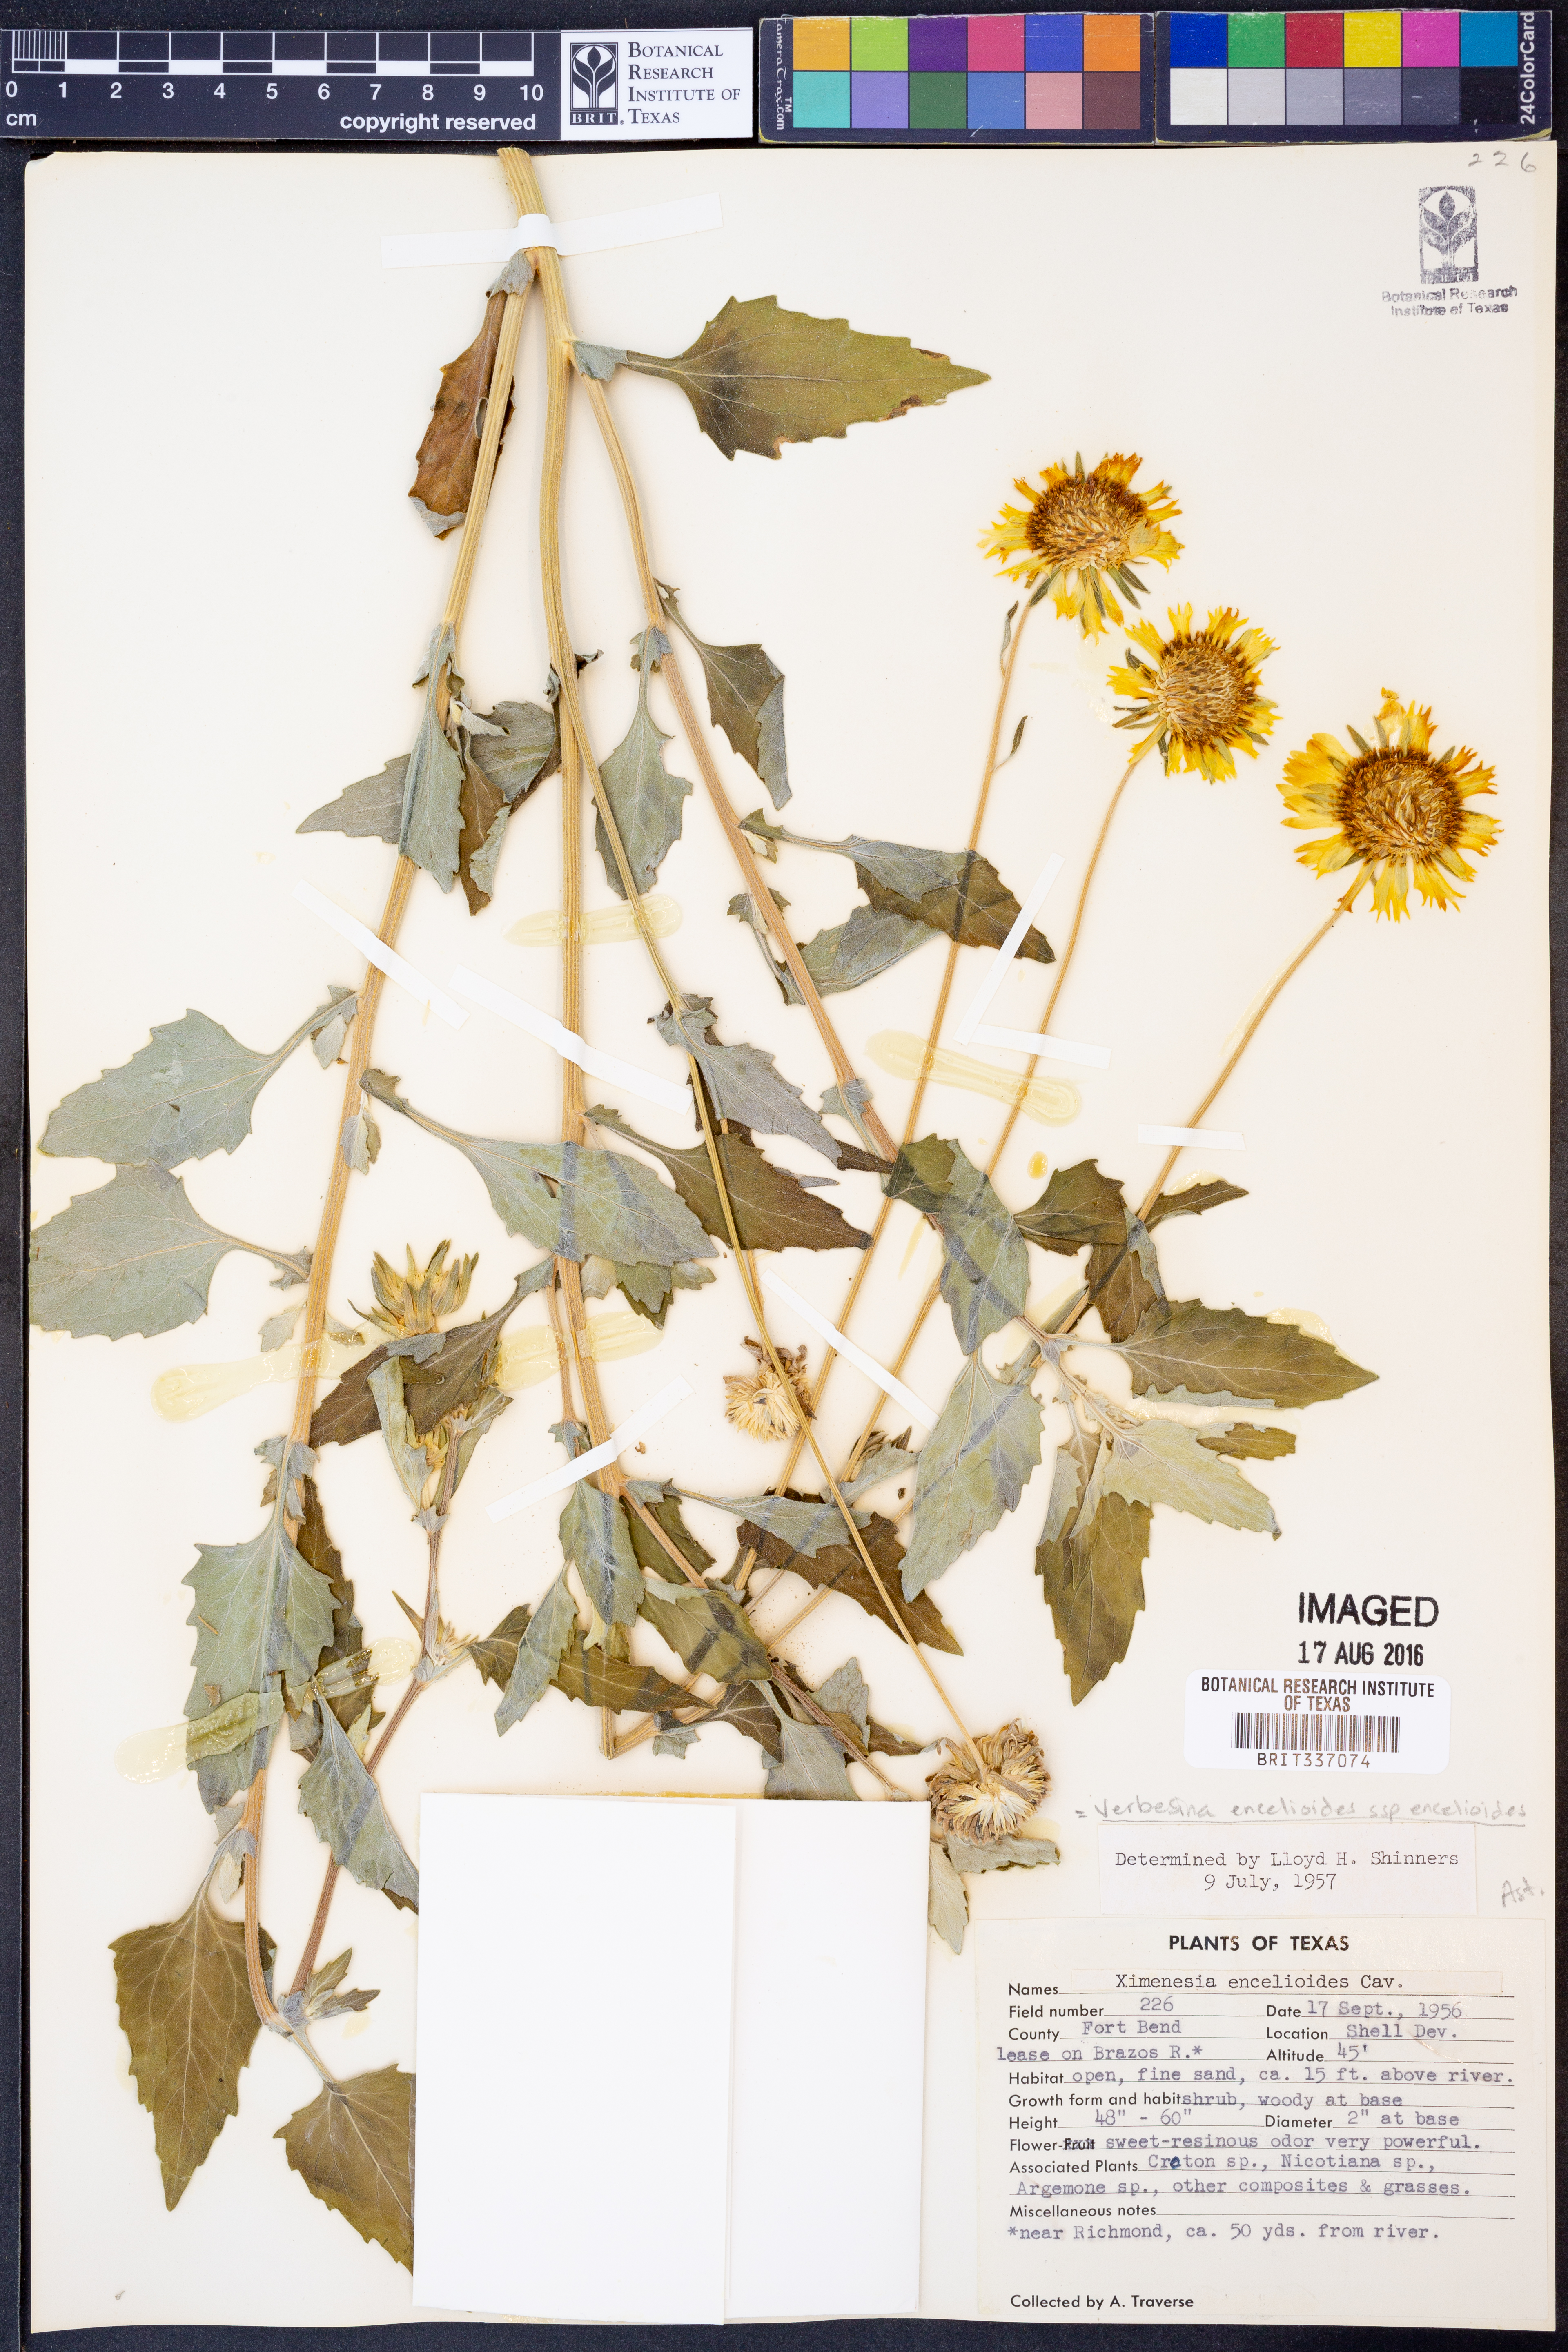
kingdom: Plantae
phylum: Tracheophyta
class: Magnoliopsida
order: Asterales
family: Asteraceae
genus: Verbesina
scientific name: Verbesina encelioides
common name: Golden crownbeard
